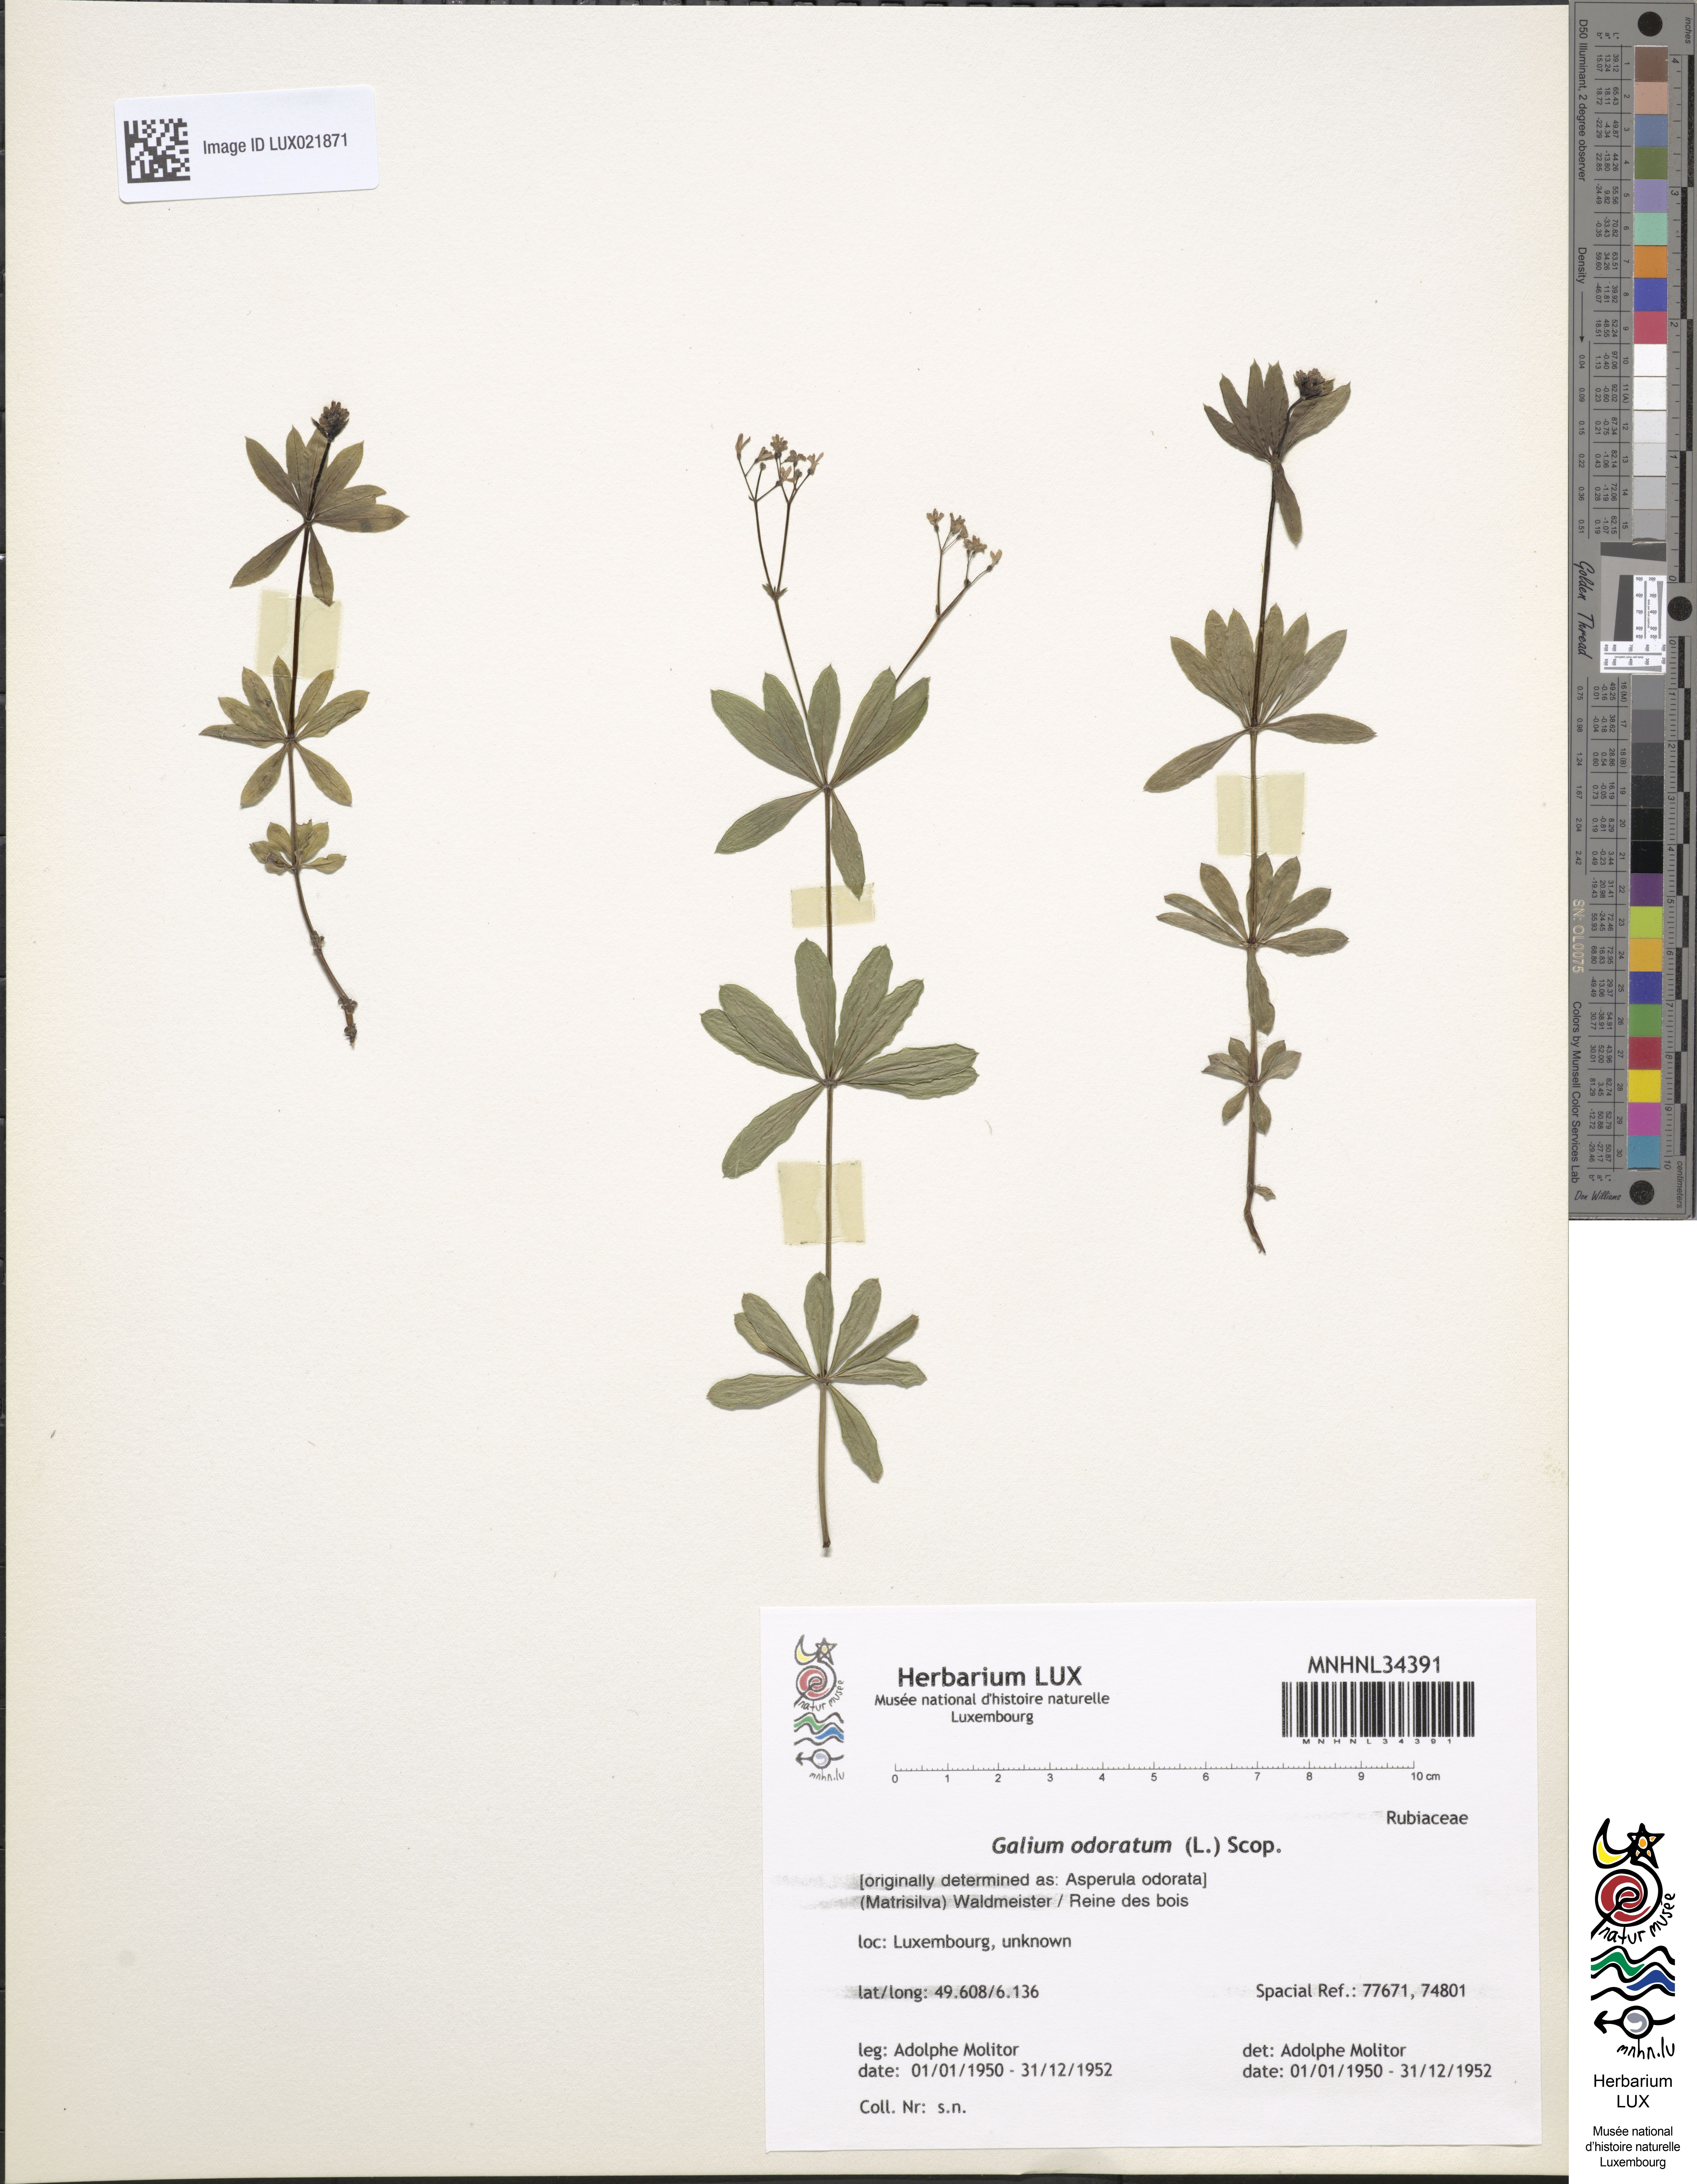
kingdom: Plantae
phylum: Tracheophyta
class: Magnoliopsida
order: Gentianales
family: Rubiaceae
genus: Galium
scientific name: Galium odoratum
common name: Sweet woodruff
